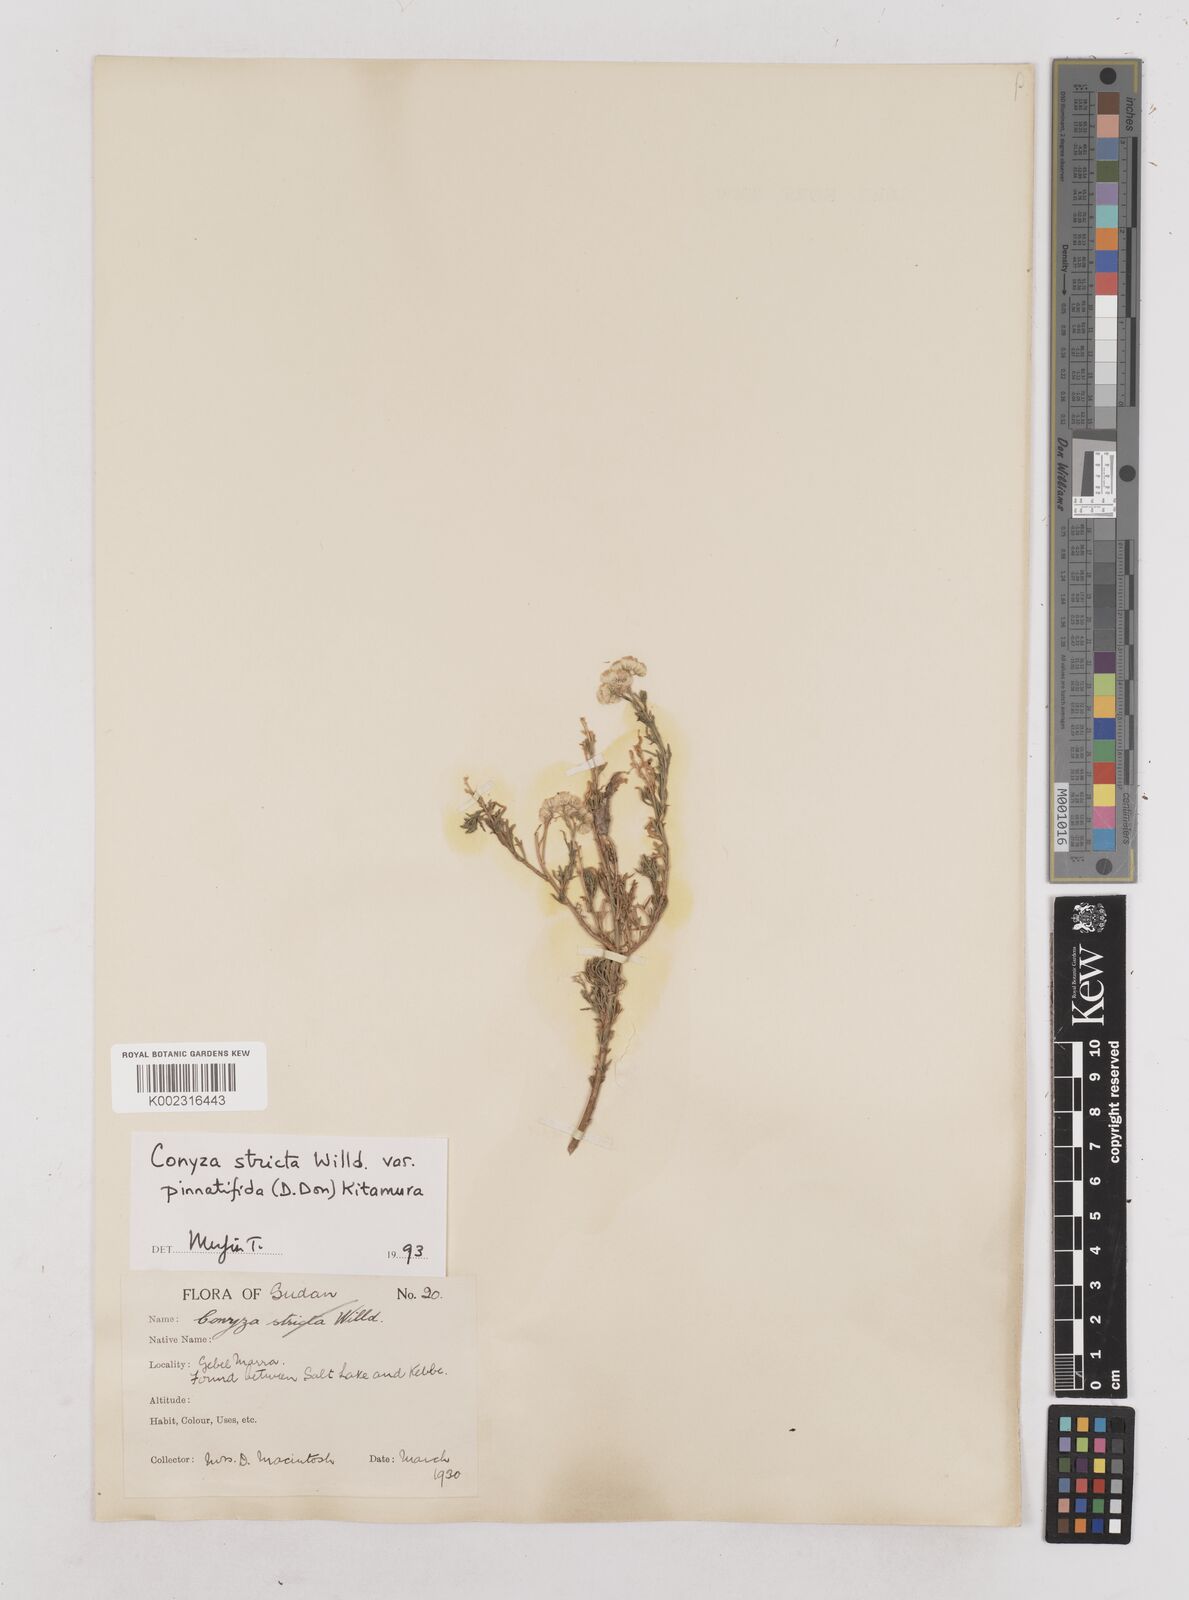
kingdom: Plantae
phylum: Tracheophyta
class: Magnoliopsida
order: Asterales
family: Asteraceae
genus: Nidorella
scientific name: Nidorella triloba
